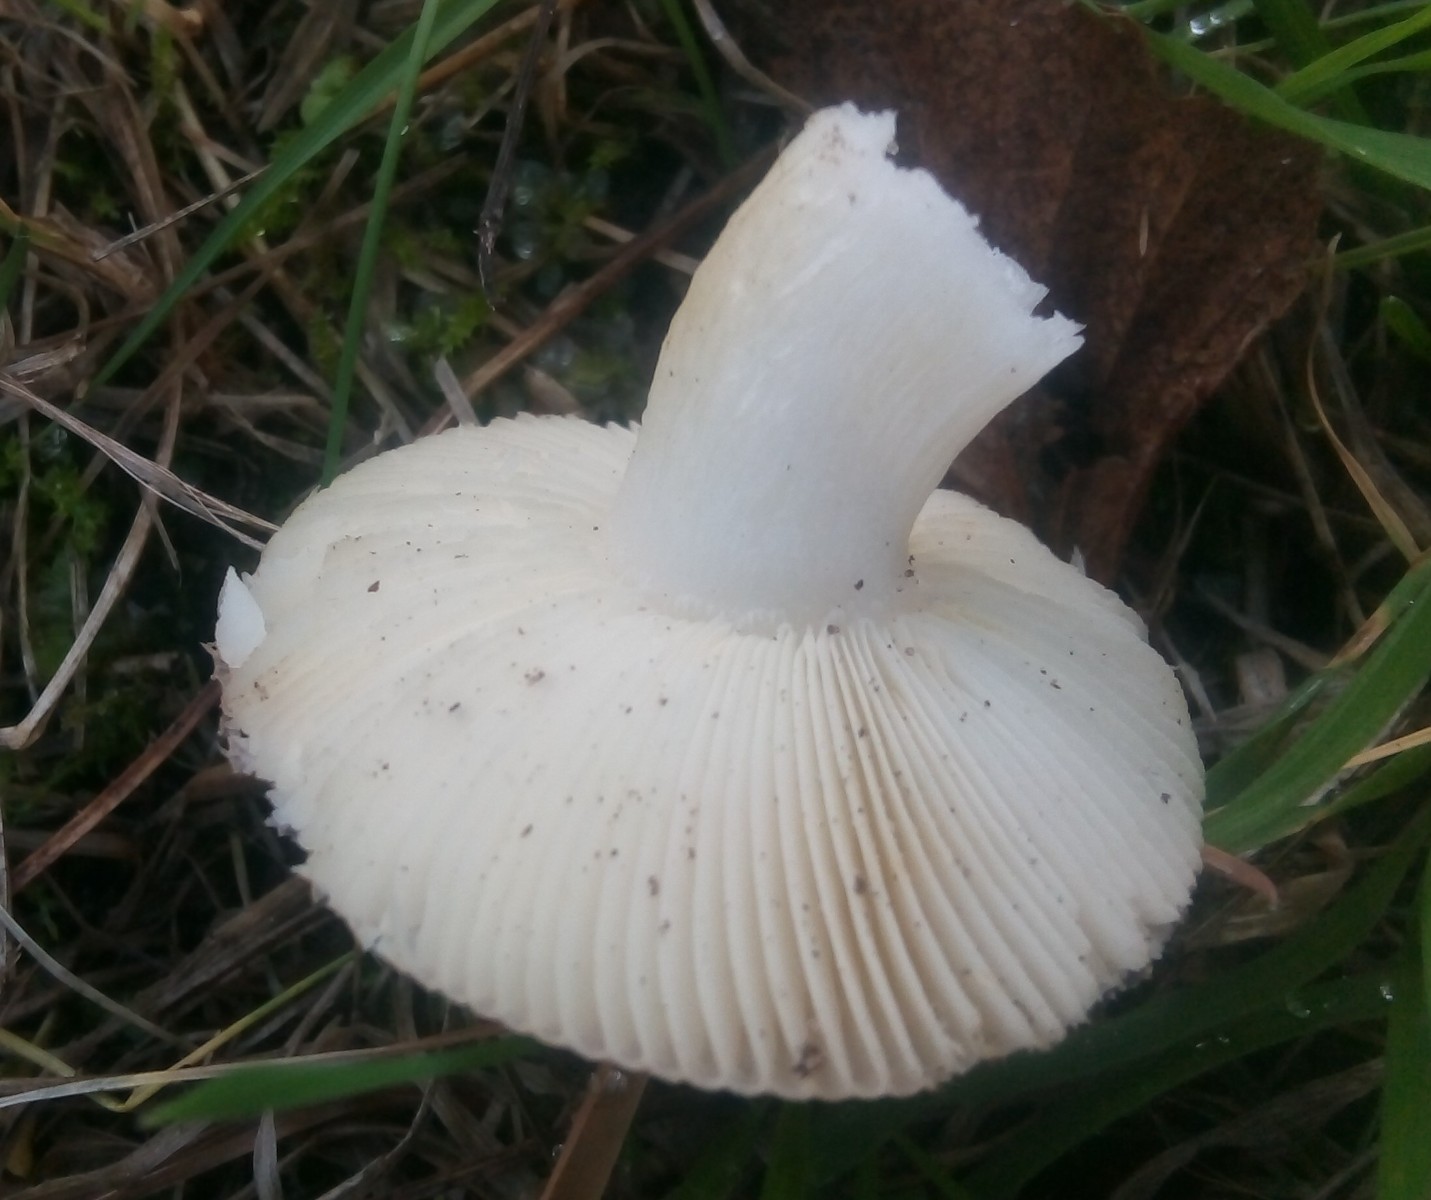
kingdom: Fungi
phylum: Basidiomycota
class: Agaricomycetes
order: Russulales
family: Russulaceae
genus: Russula
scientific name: Russula puellaris
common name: gulstokket skørhat
